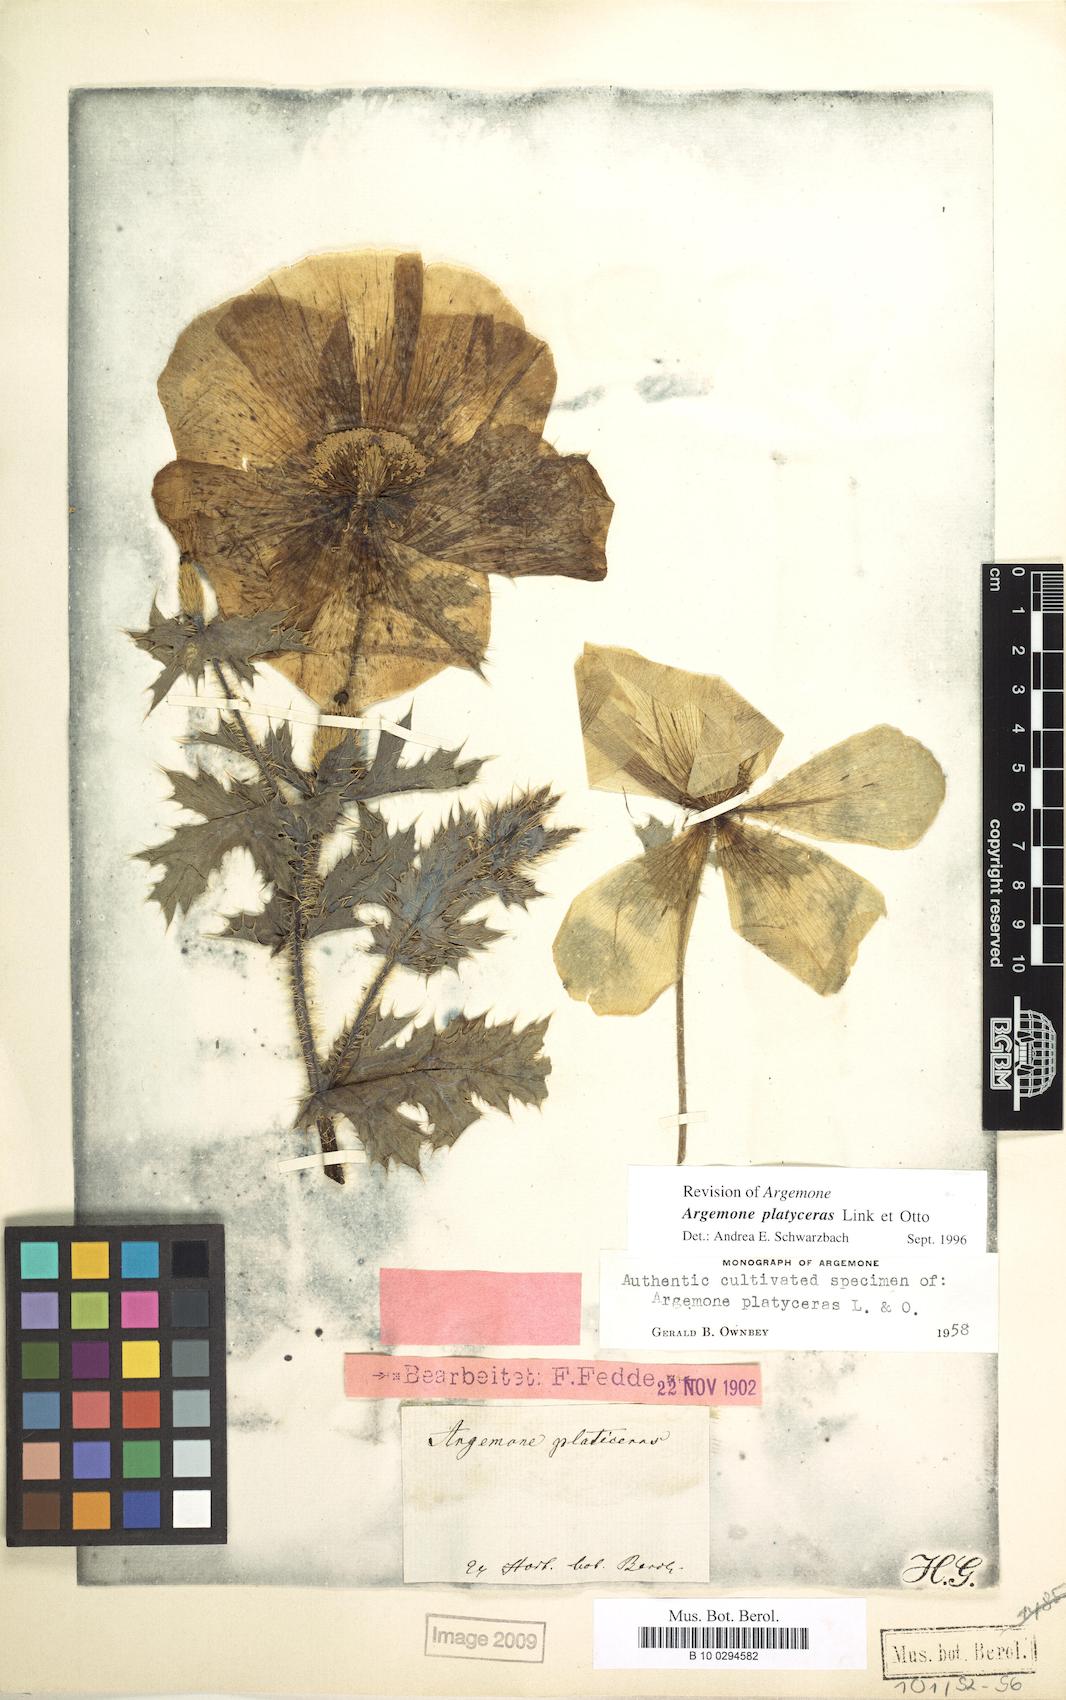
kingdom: Plantae
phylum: Tracheophyta
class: Magnoliopsida
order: Ranunculales
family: Papaveraceae
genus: Argemone
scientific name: Argemone platyceras
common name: Crested-poppy
